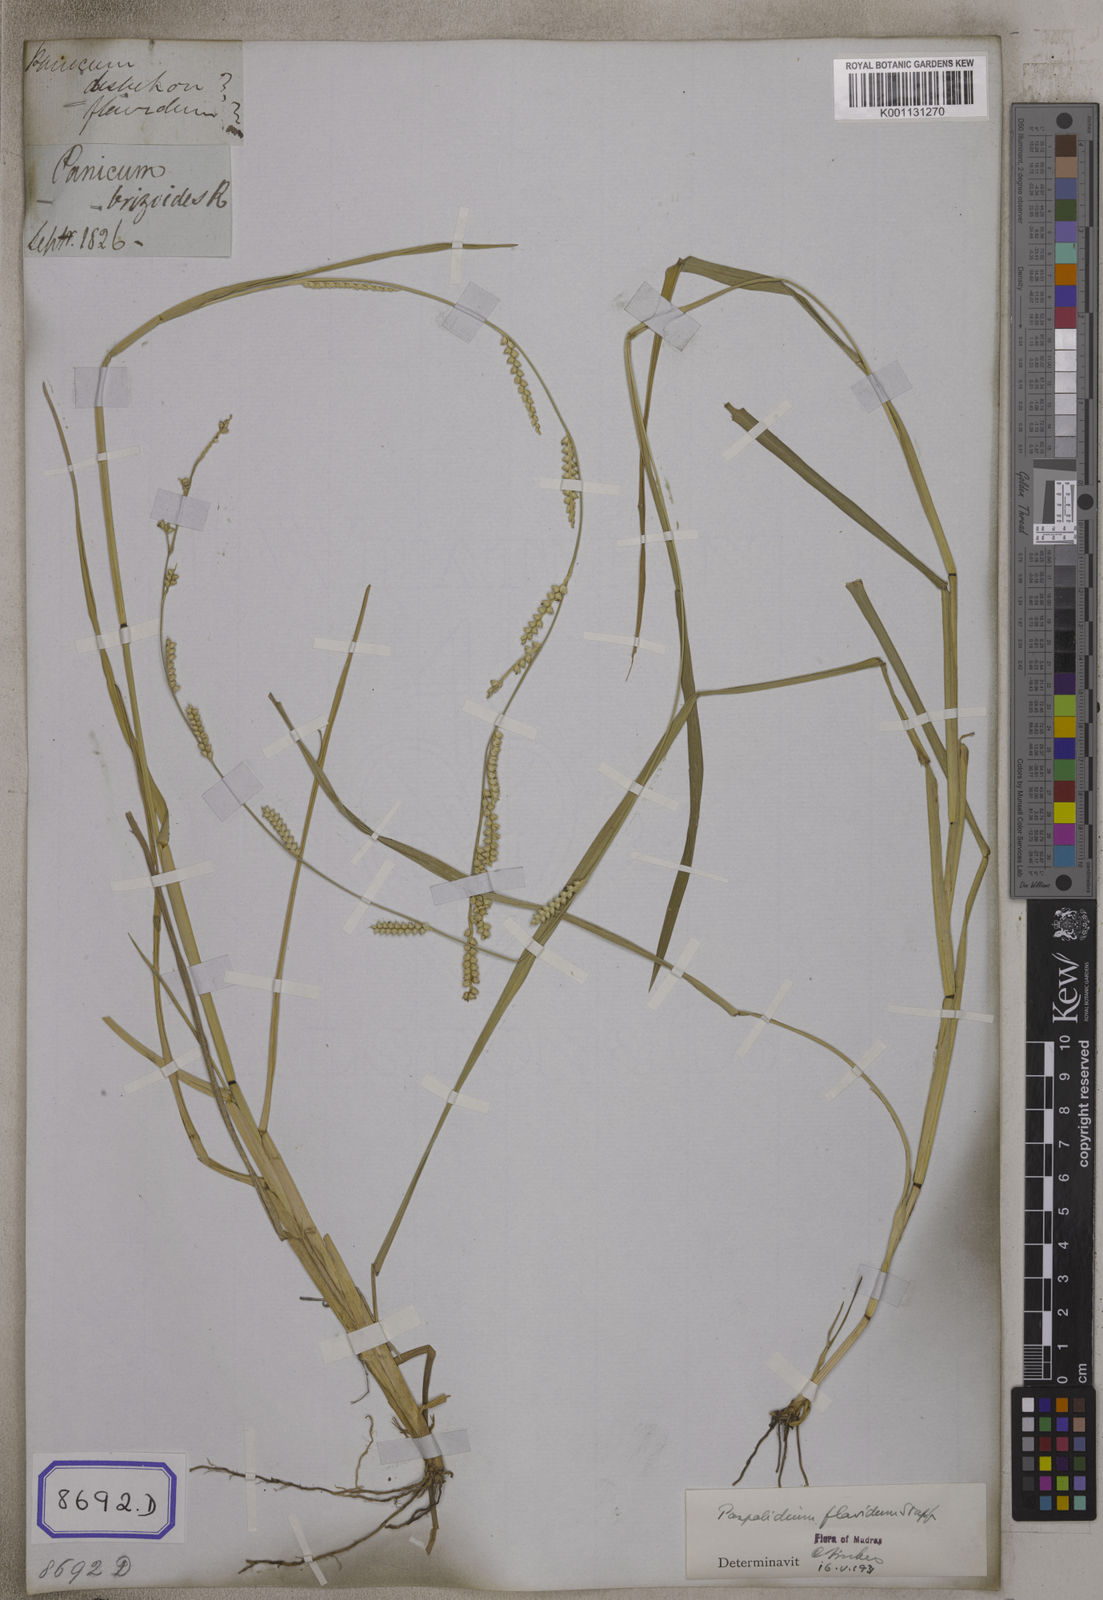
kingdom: Plantae
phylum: Tracheophyta
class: Liliopsida
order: Poales
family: Poaceae
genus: Setaria
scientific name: Setaria flavida
